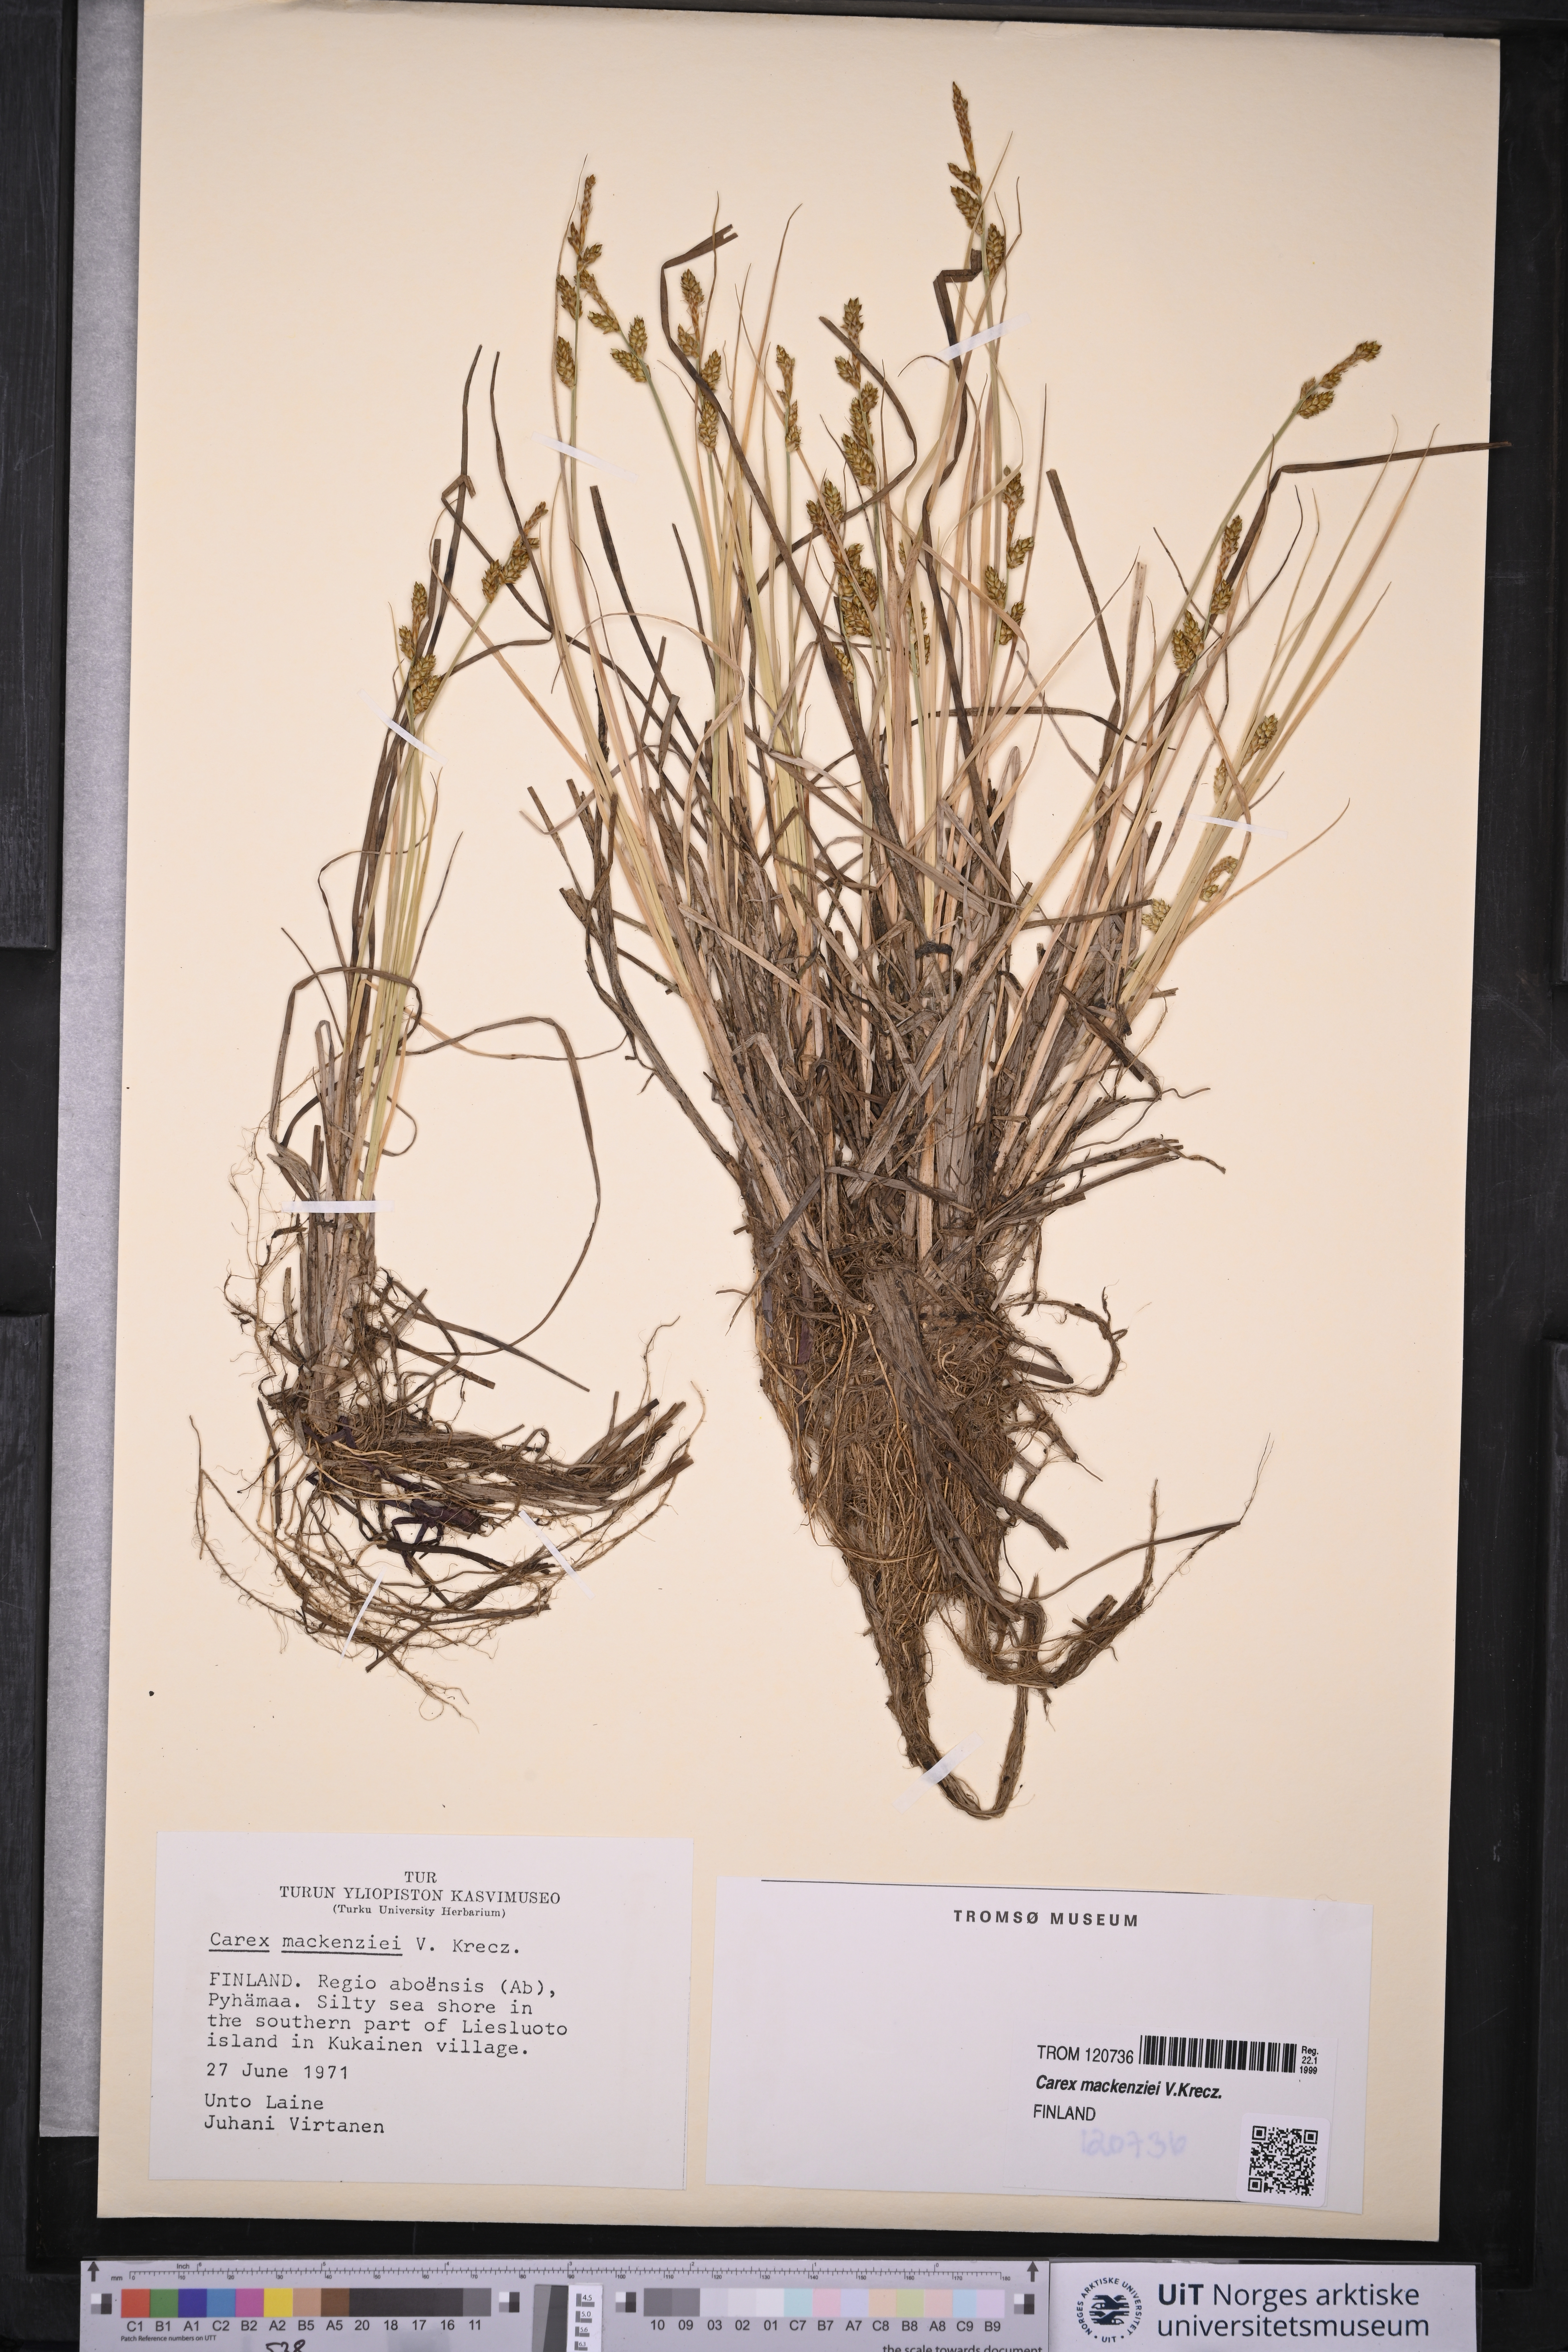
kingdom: Plantae
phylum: Tracheophyta
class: Liliopsida
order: Poales
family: Cyperaceae
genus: Carex
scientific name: Carex mackenziei
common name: Mackenzie's sedge
